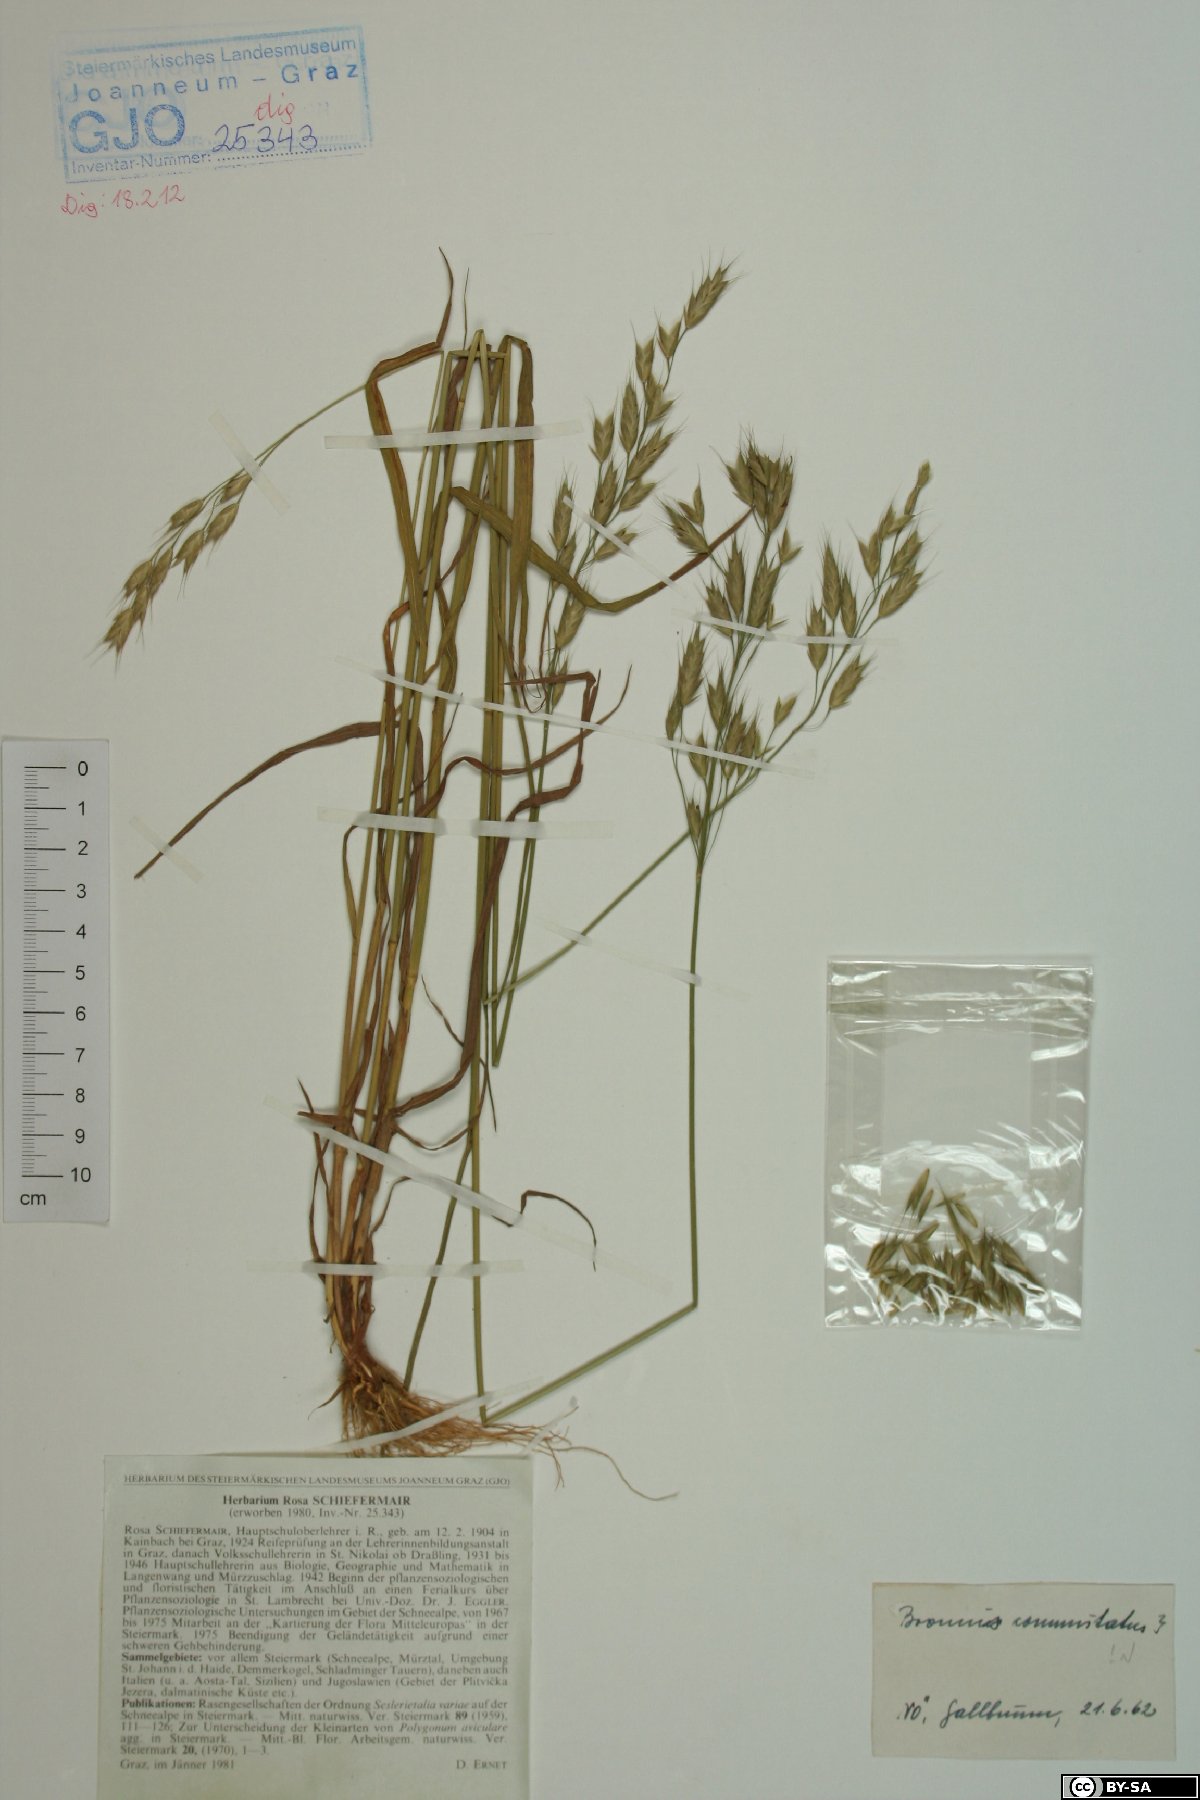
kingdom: Plantae
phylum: Tracheophyta
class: Liliopsida
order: Poales
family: Poaceae
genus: Bromus
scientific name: Bromus commutatus
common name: Meadow brome
